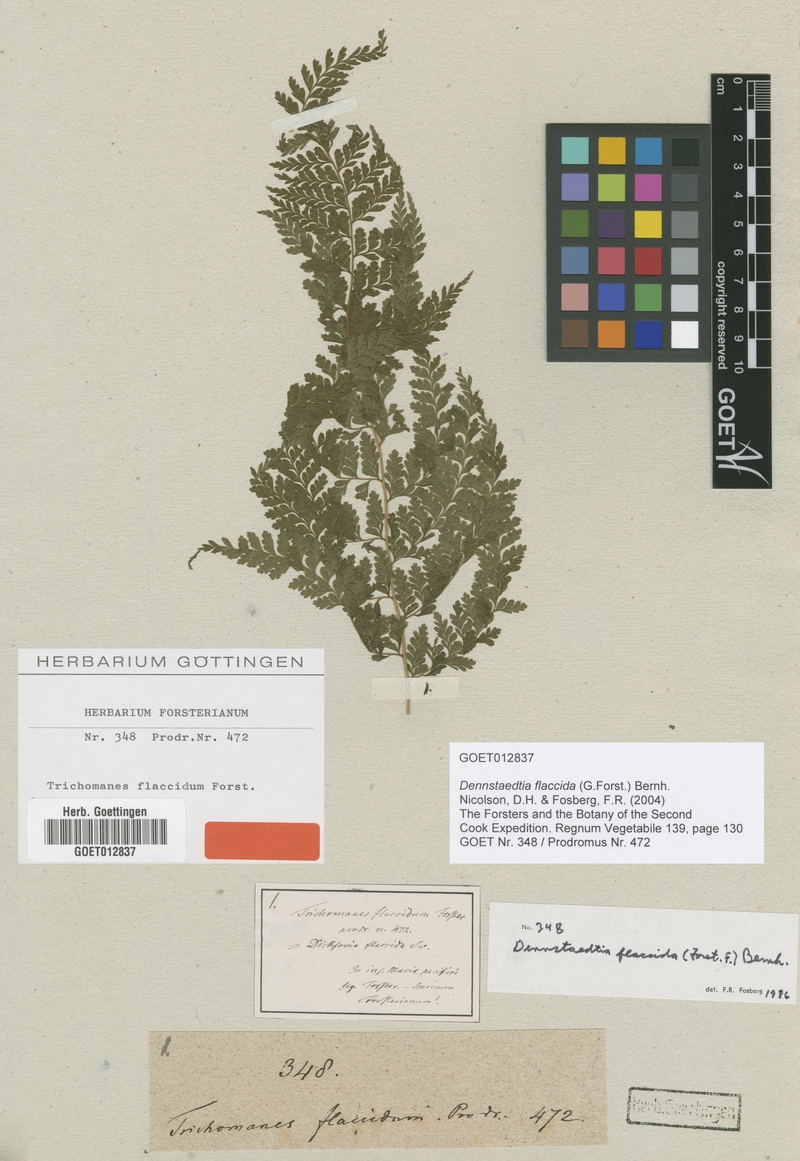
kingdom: Plantae
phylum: Tracheophyta
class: Polypodiopsida
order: Polypodiales
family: Dennstaedtiaceae
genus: Dennstaedtia
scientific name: Dennstaedtia flaccida
